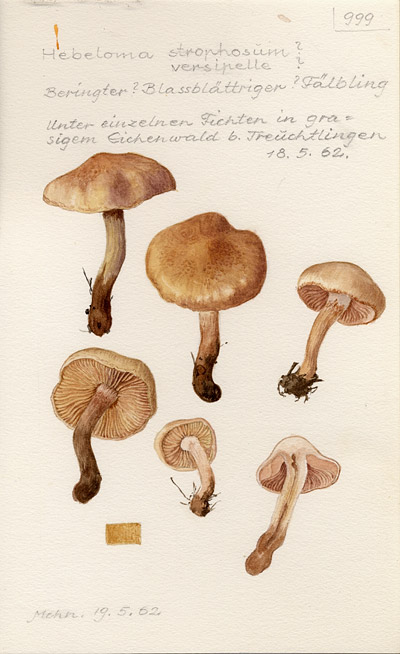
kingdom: Fungi
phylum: Basidiomycota
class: Agaricomycetes
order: Agaricales
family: Hymenogastraceae
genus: Hebeloma
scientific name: Hebeloma mesophaeum
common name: Veiled poisonpie
